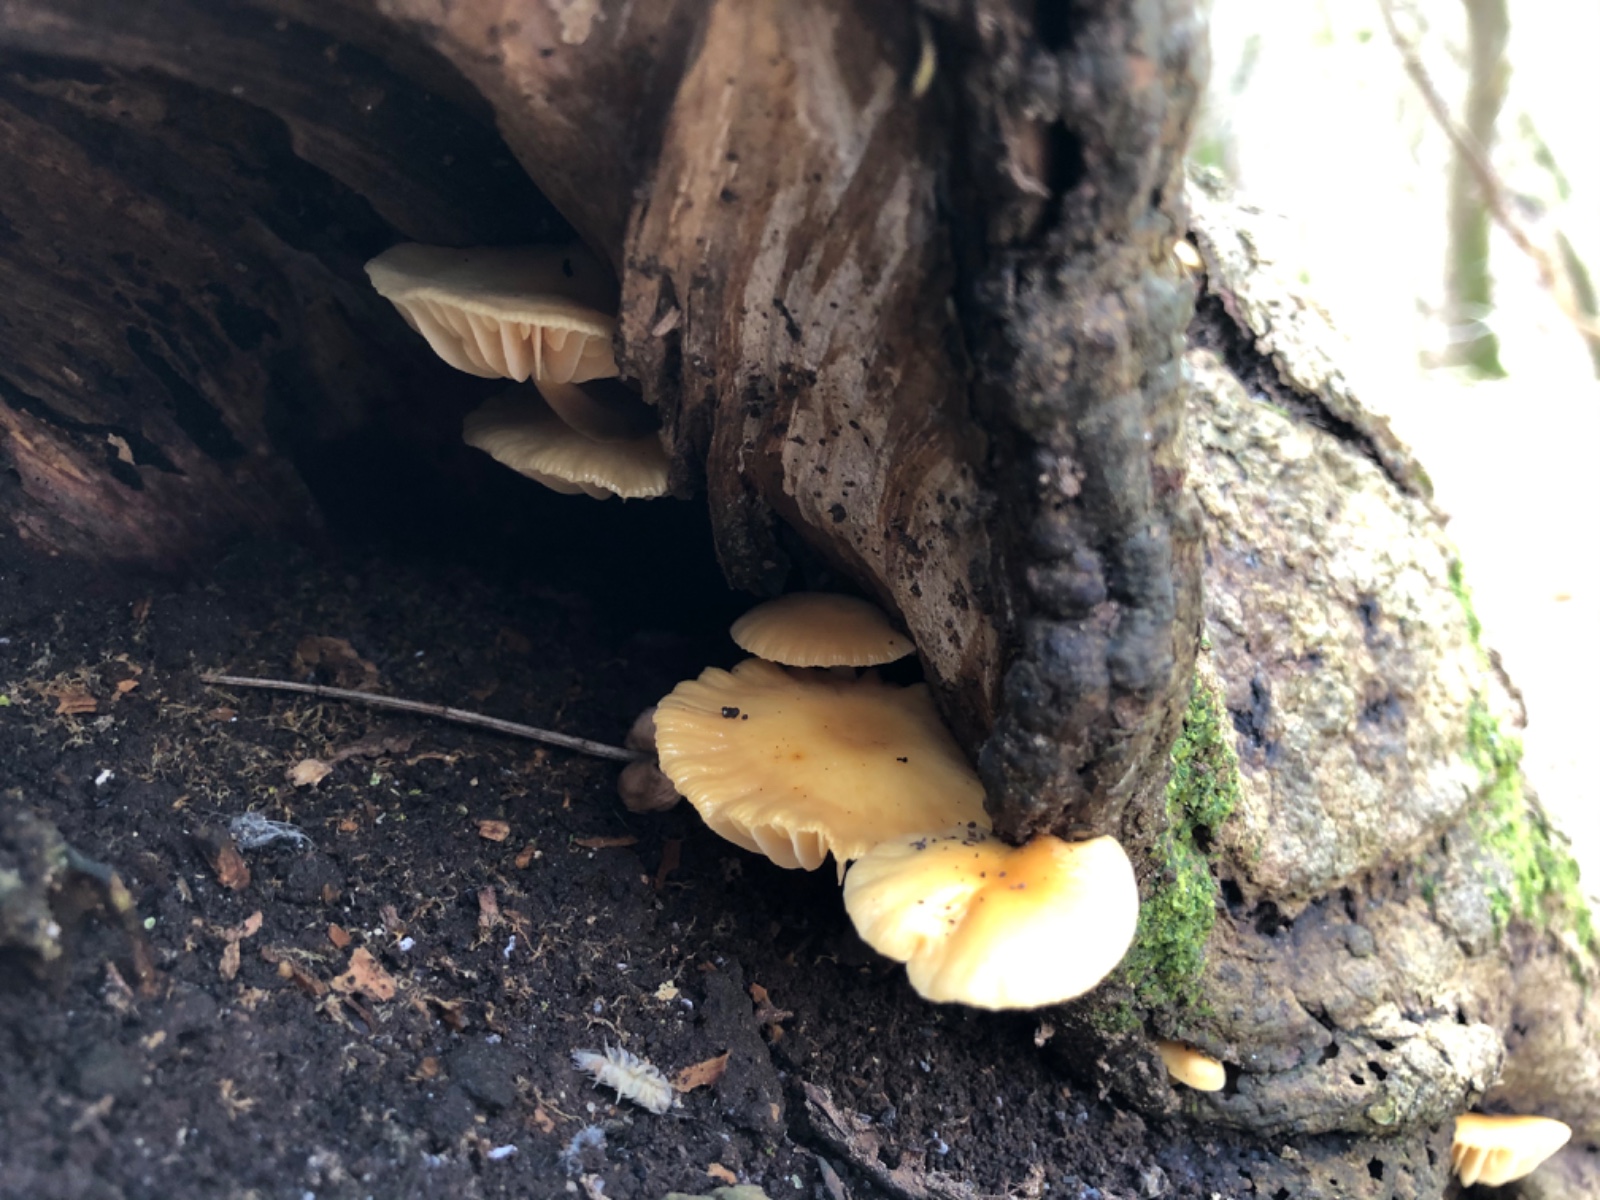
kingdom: Fungi
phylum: Basidiomycota
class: Agaricomycetes
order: Agaricales
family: Physalacriaceae
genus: Flammulina
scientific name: Flammulina velutipes
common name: gul fløjlsfod
